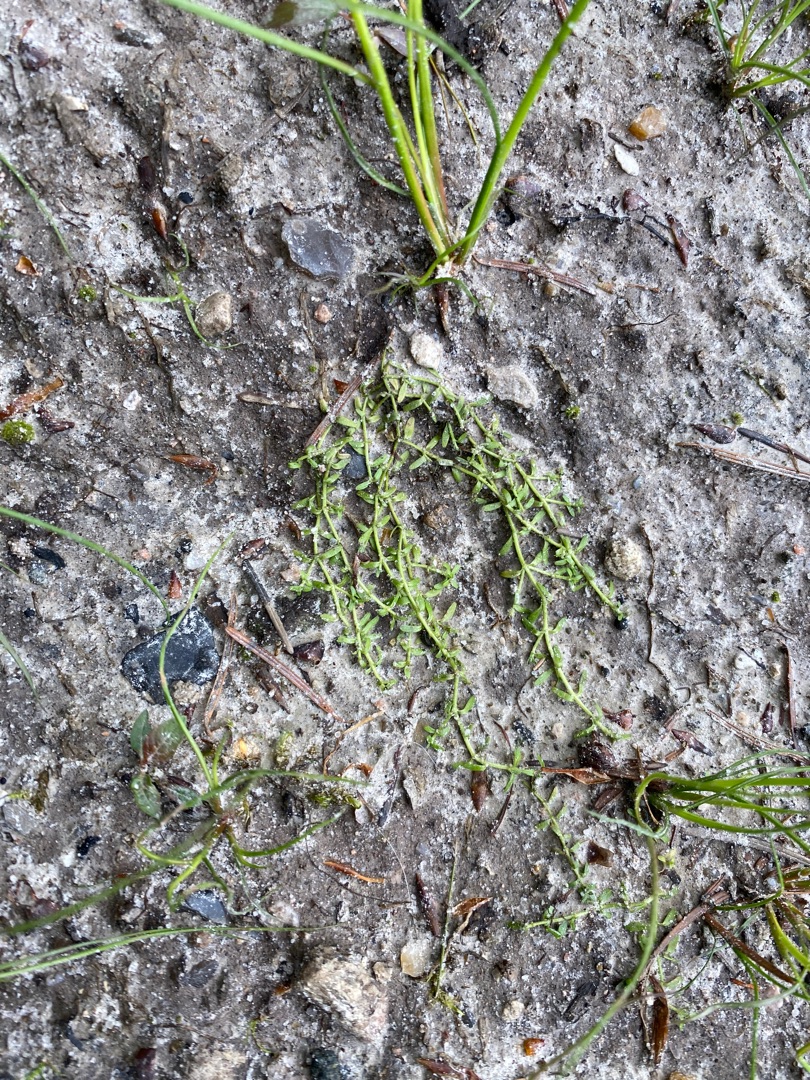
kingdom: Plantae
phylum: Tracheophyta
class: Magnoliopsida
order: Lamiales
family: Plantaginaceae
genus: Callitriche
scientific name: Callitriche
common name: Vandstjerneslægten
